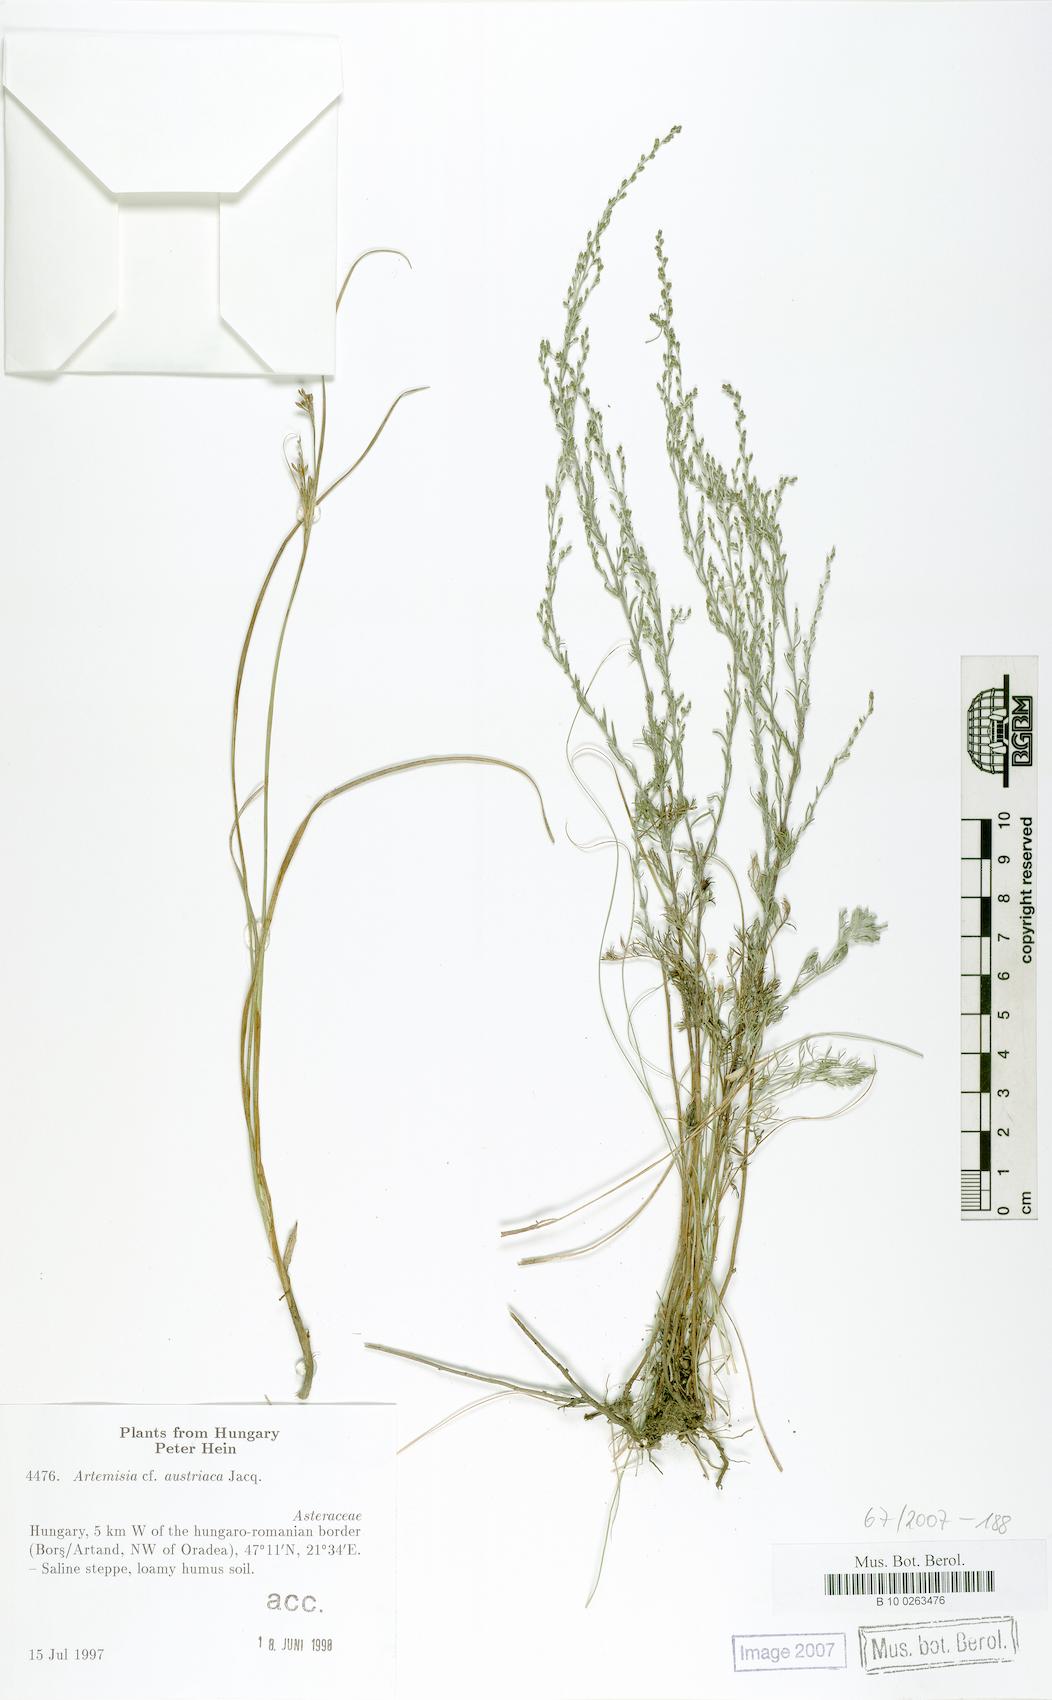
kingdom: Plantae
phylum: Tracheophyta
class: Magnoliopsida
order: Asterales
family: Asteraceae
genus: Artemisia
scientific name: Artemisia austriaca
